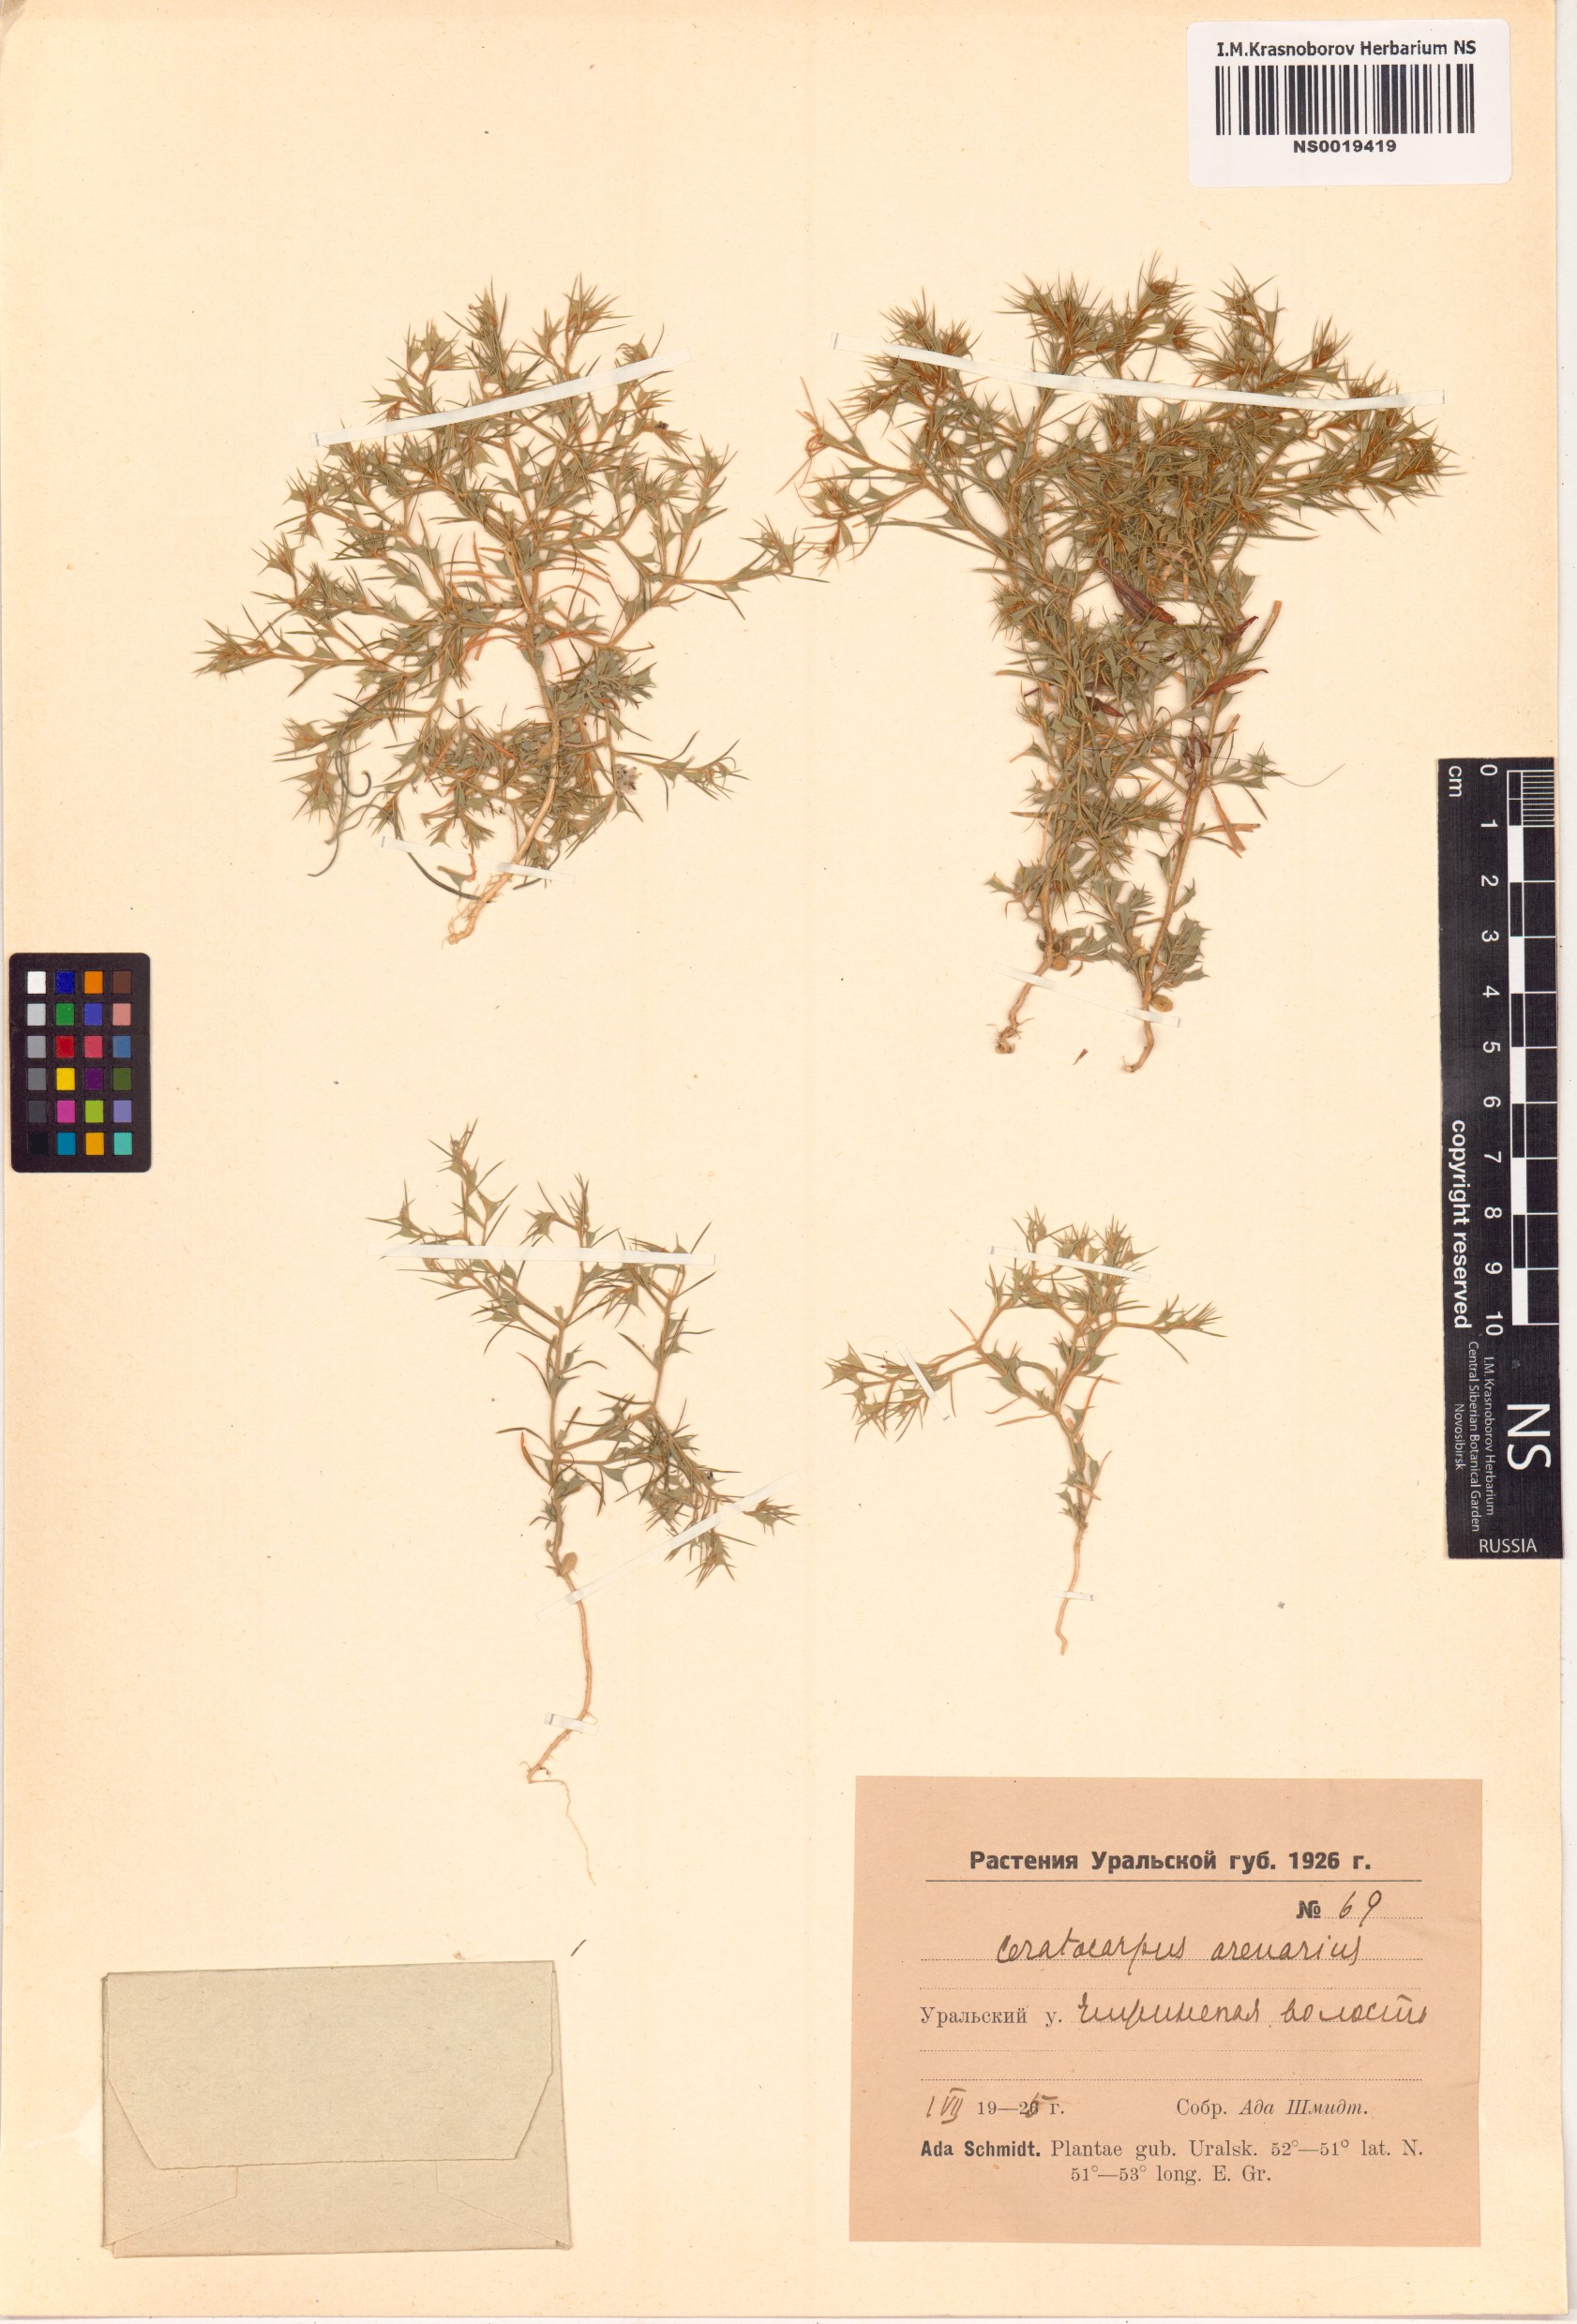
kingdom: Plantae
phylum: Tracheophyta
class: Magnoliopsida
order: Caryophyllales
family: Amaranthaceae
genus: Ceratocarpus
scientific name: Ceratocarpus arenarius
